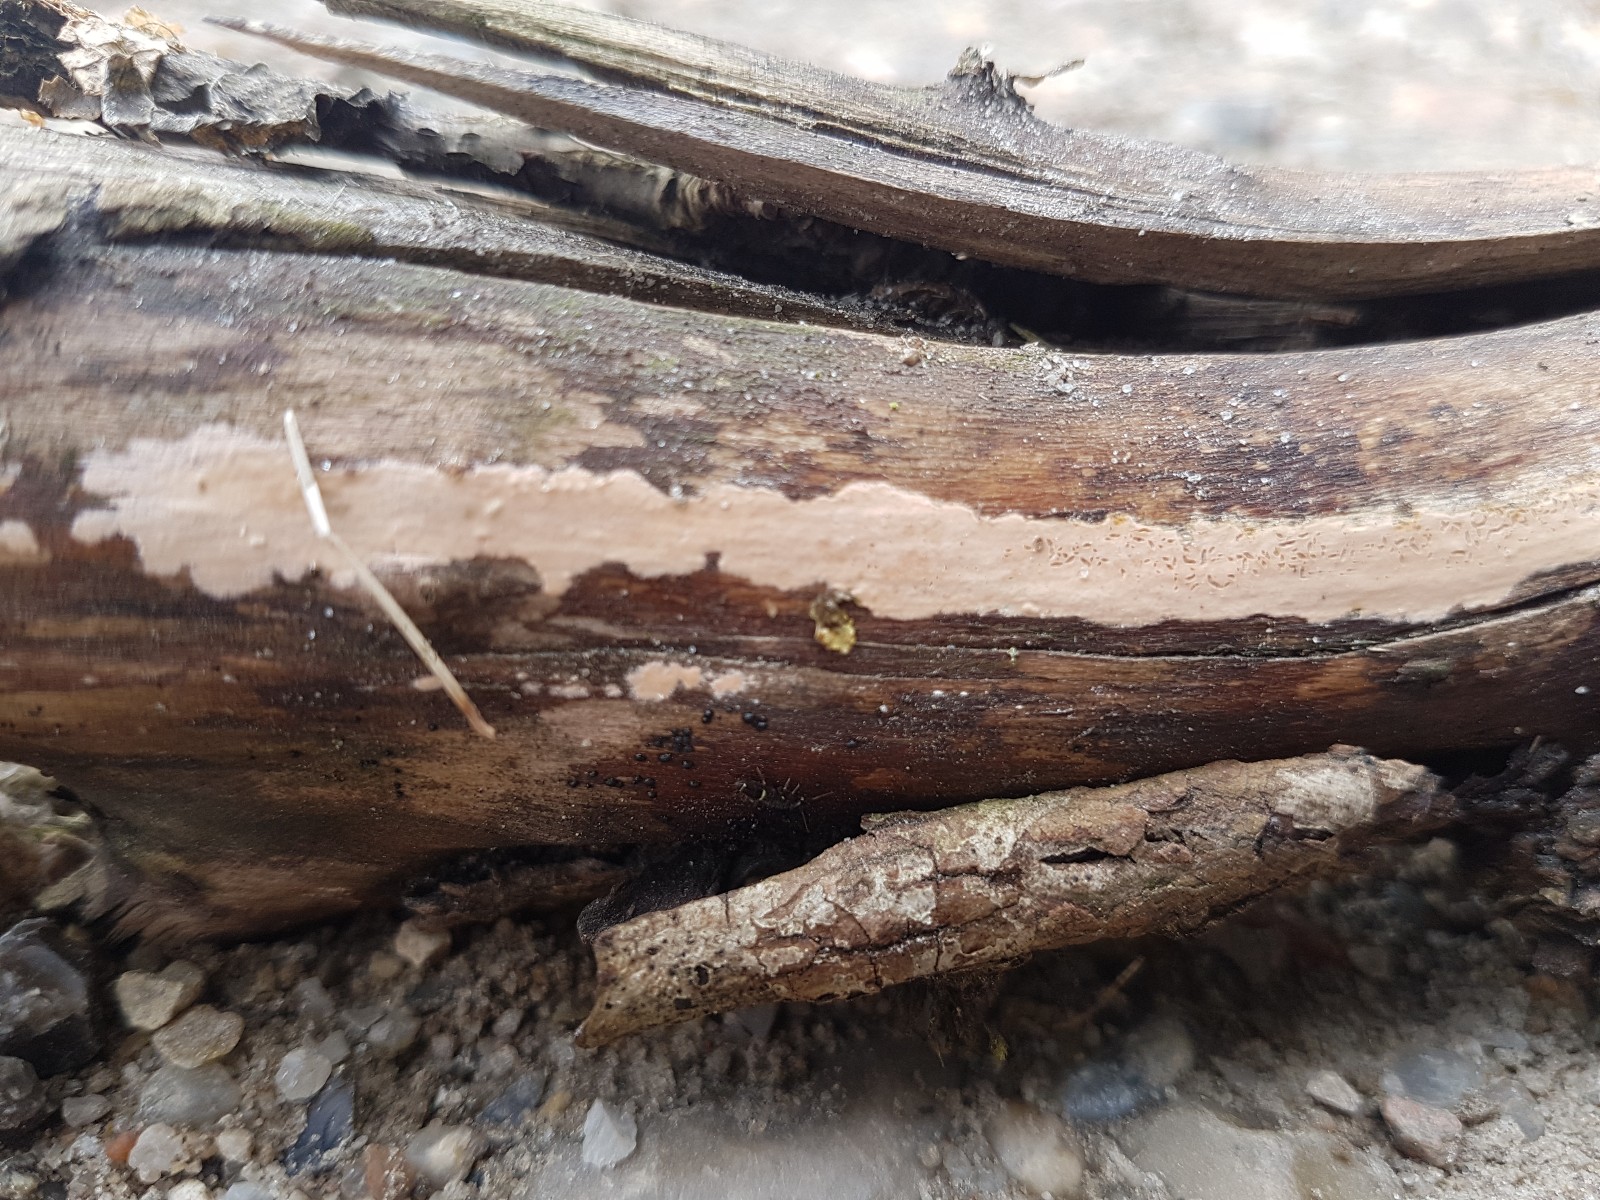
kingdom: Fungi
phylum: Basidiomycota
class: Agaricomycetes
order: Russulales
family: Peniophoraceae
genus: Peniophora
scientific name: Peniophora incarnata
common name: laksefarvet voksskind
